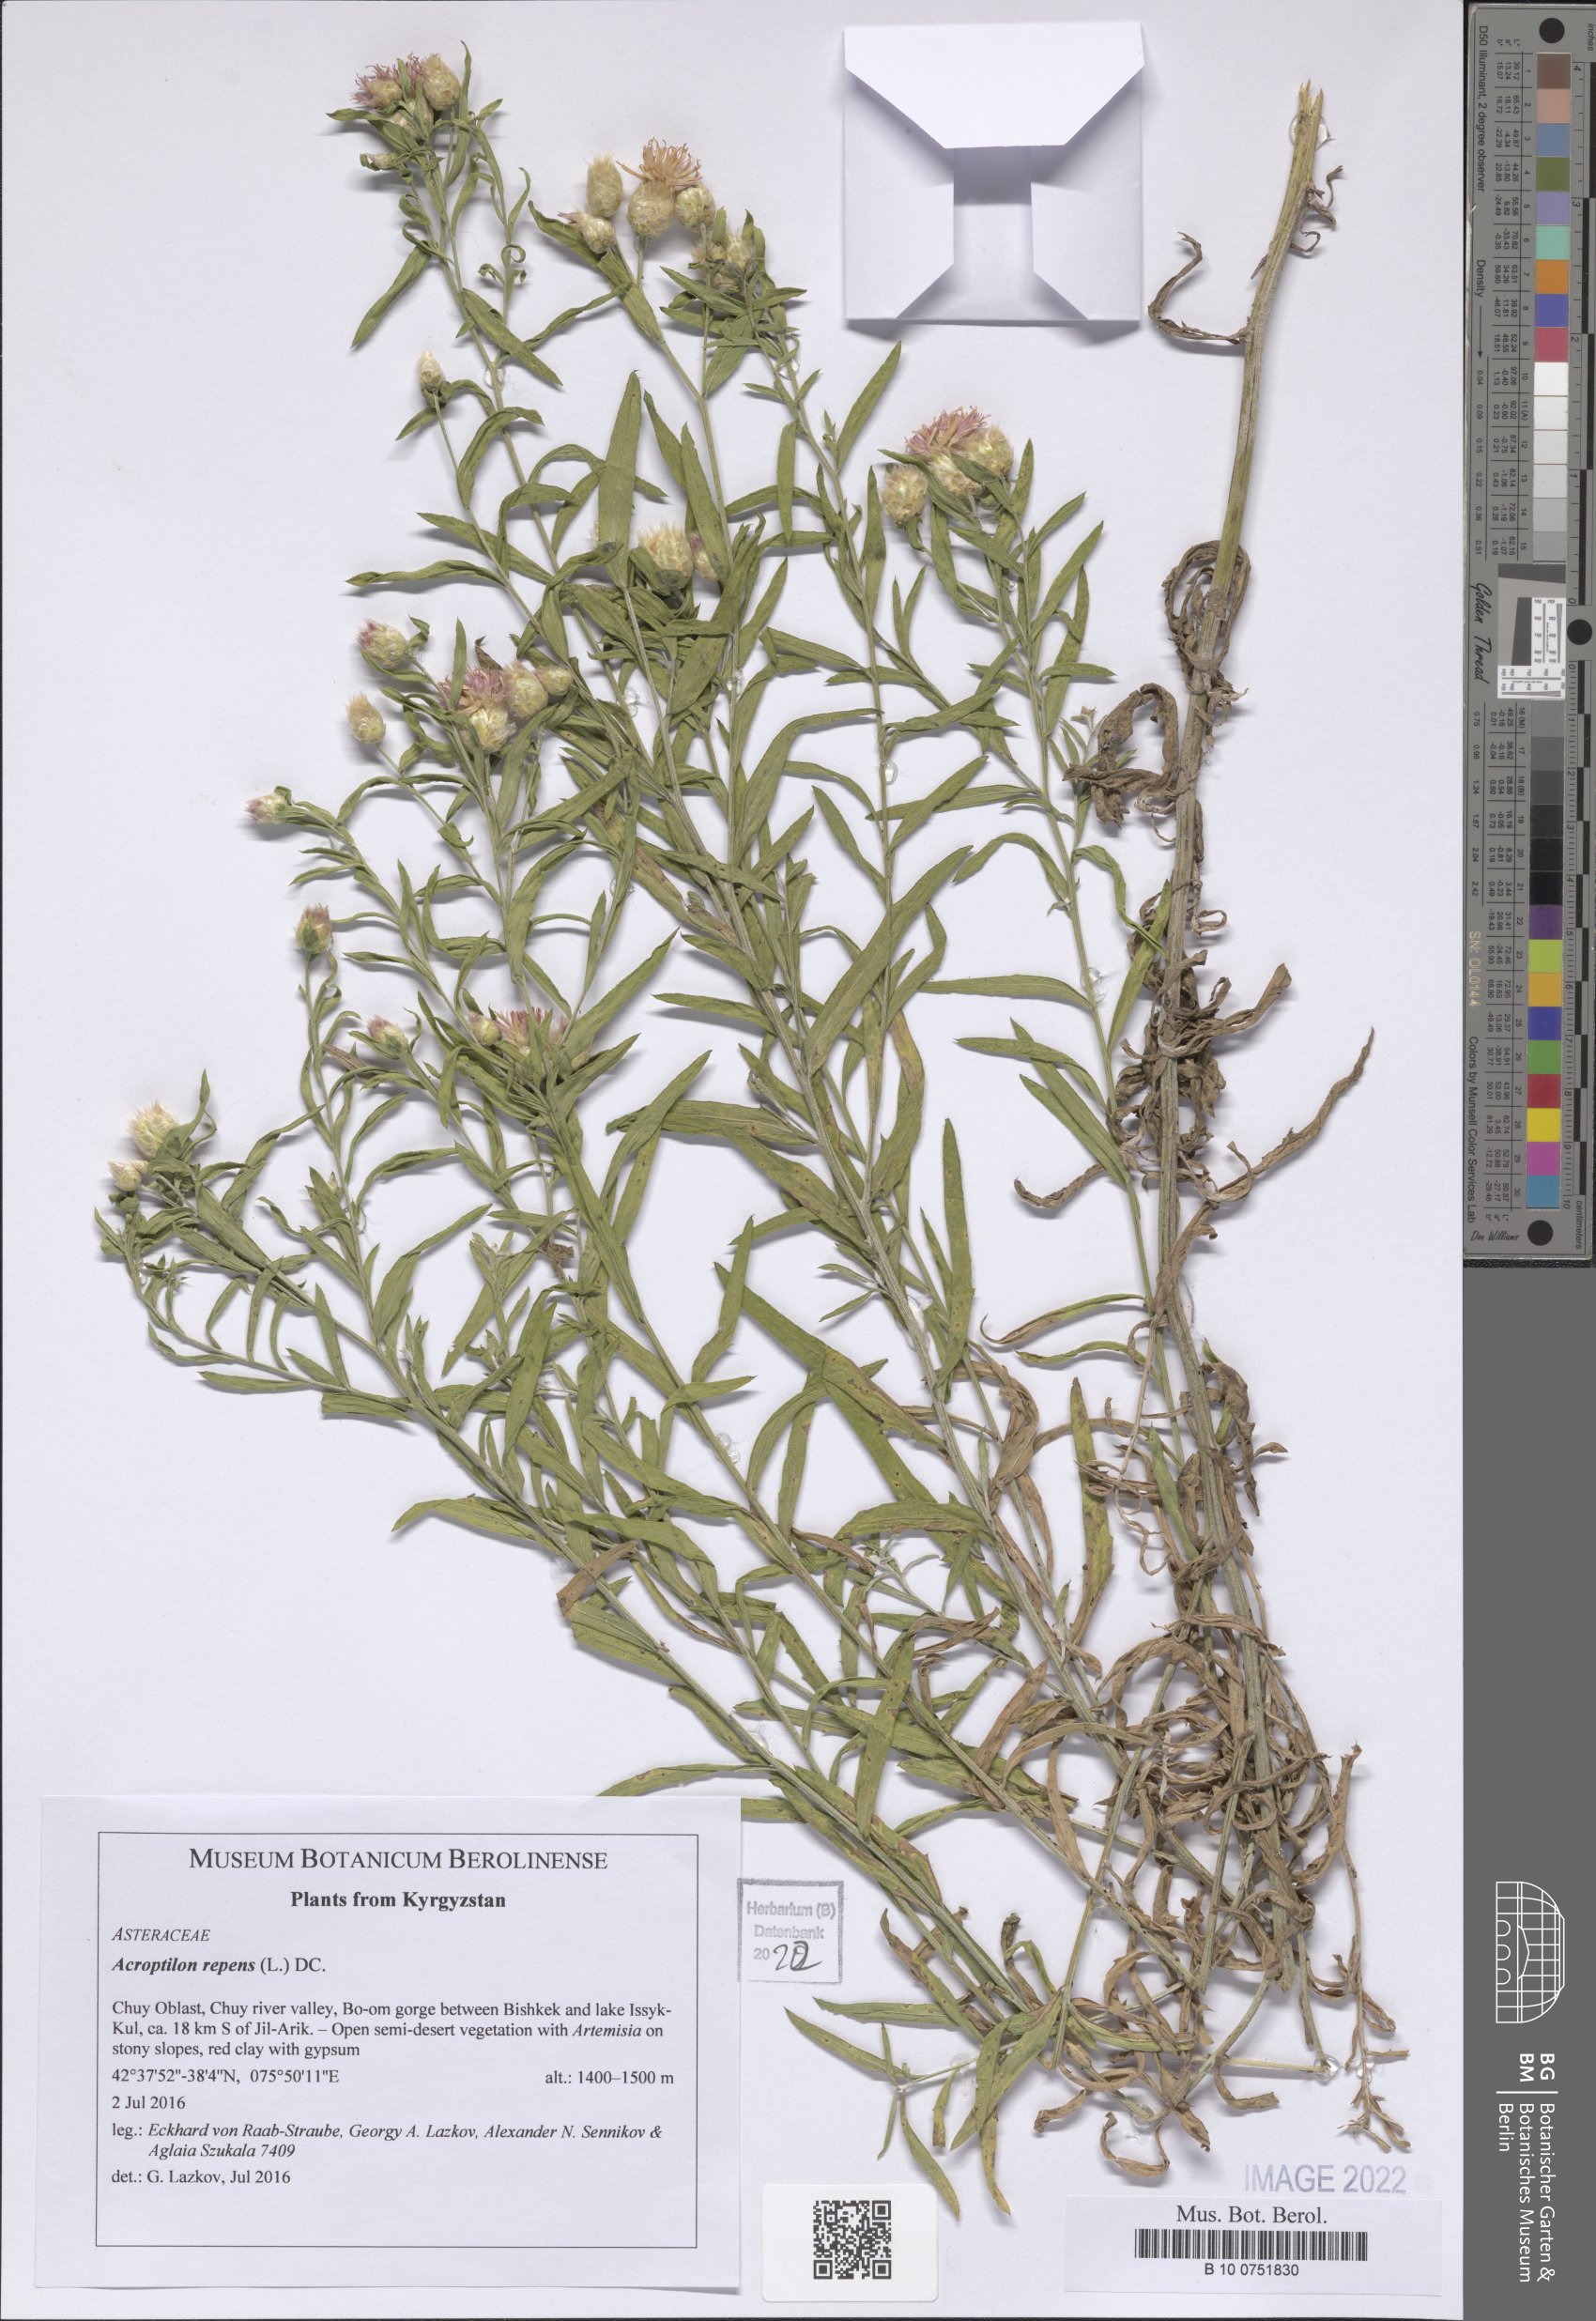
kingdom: Plantae
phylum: Tracheophyta
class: Magnoliopsida
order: Asterales
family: Asteraceae
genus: Leuzea
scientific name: Leuzea repens
